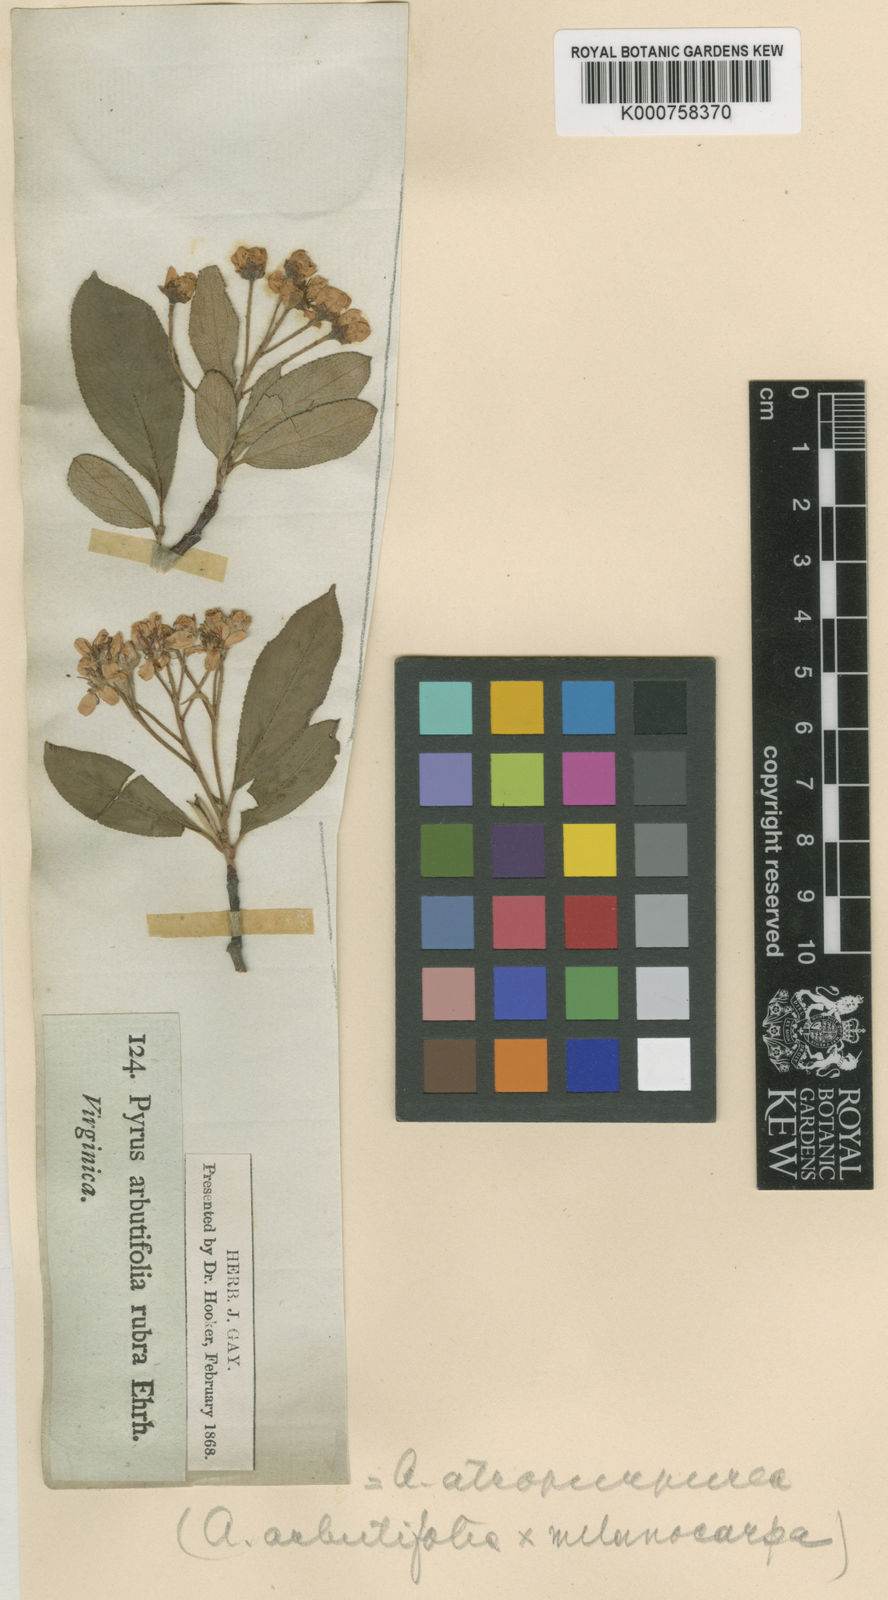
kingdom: Plantae
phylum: Tracheophyta
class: Magnoliopsida
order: Rosales
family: Rosaceae
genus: Heteromeles
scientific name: Heteromeles arbutifolia
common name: California-holly
